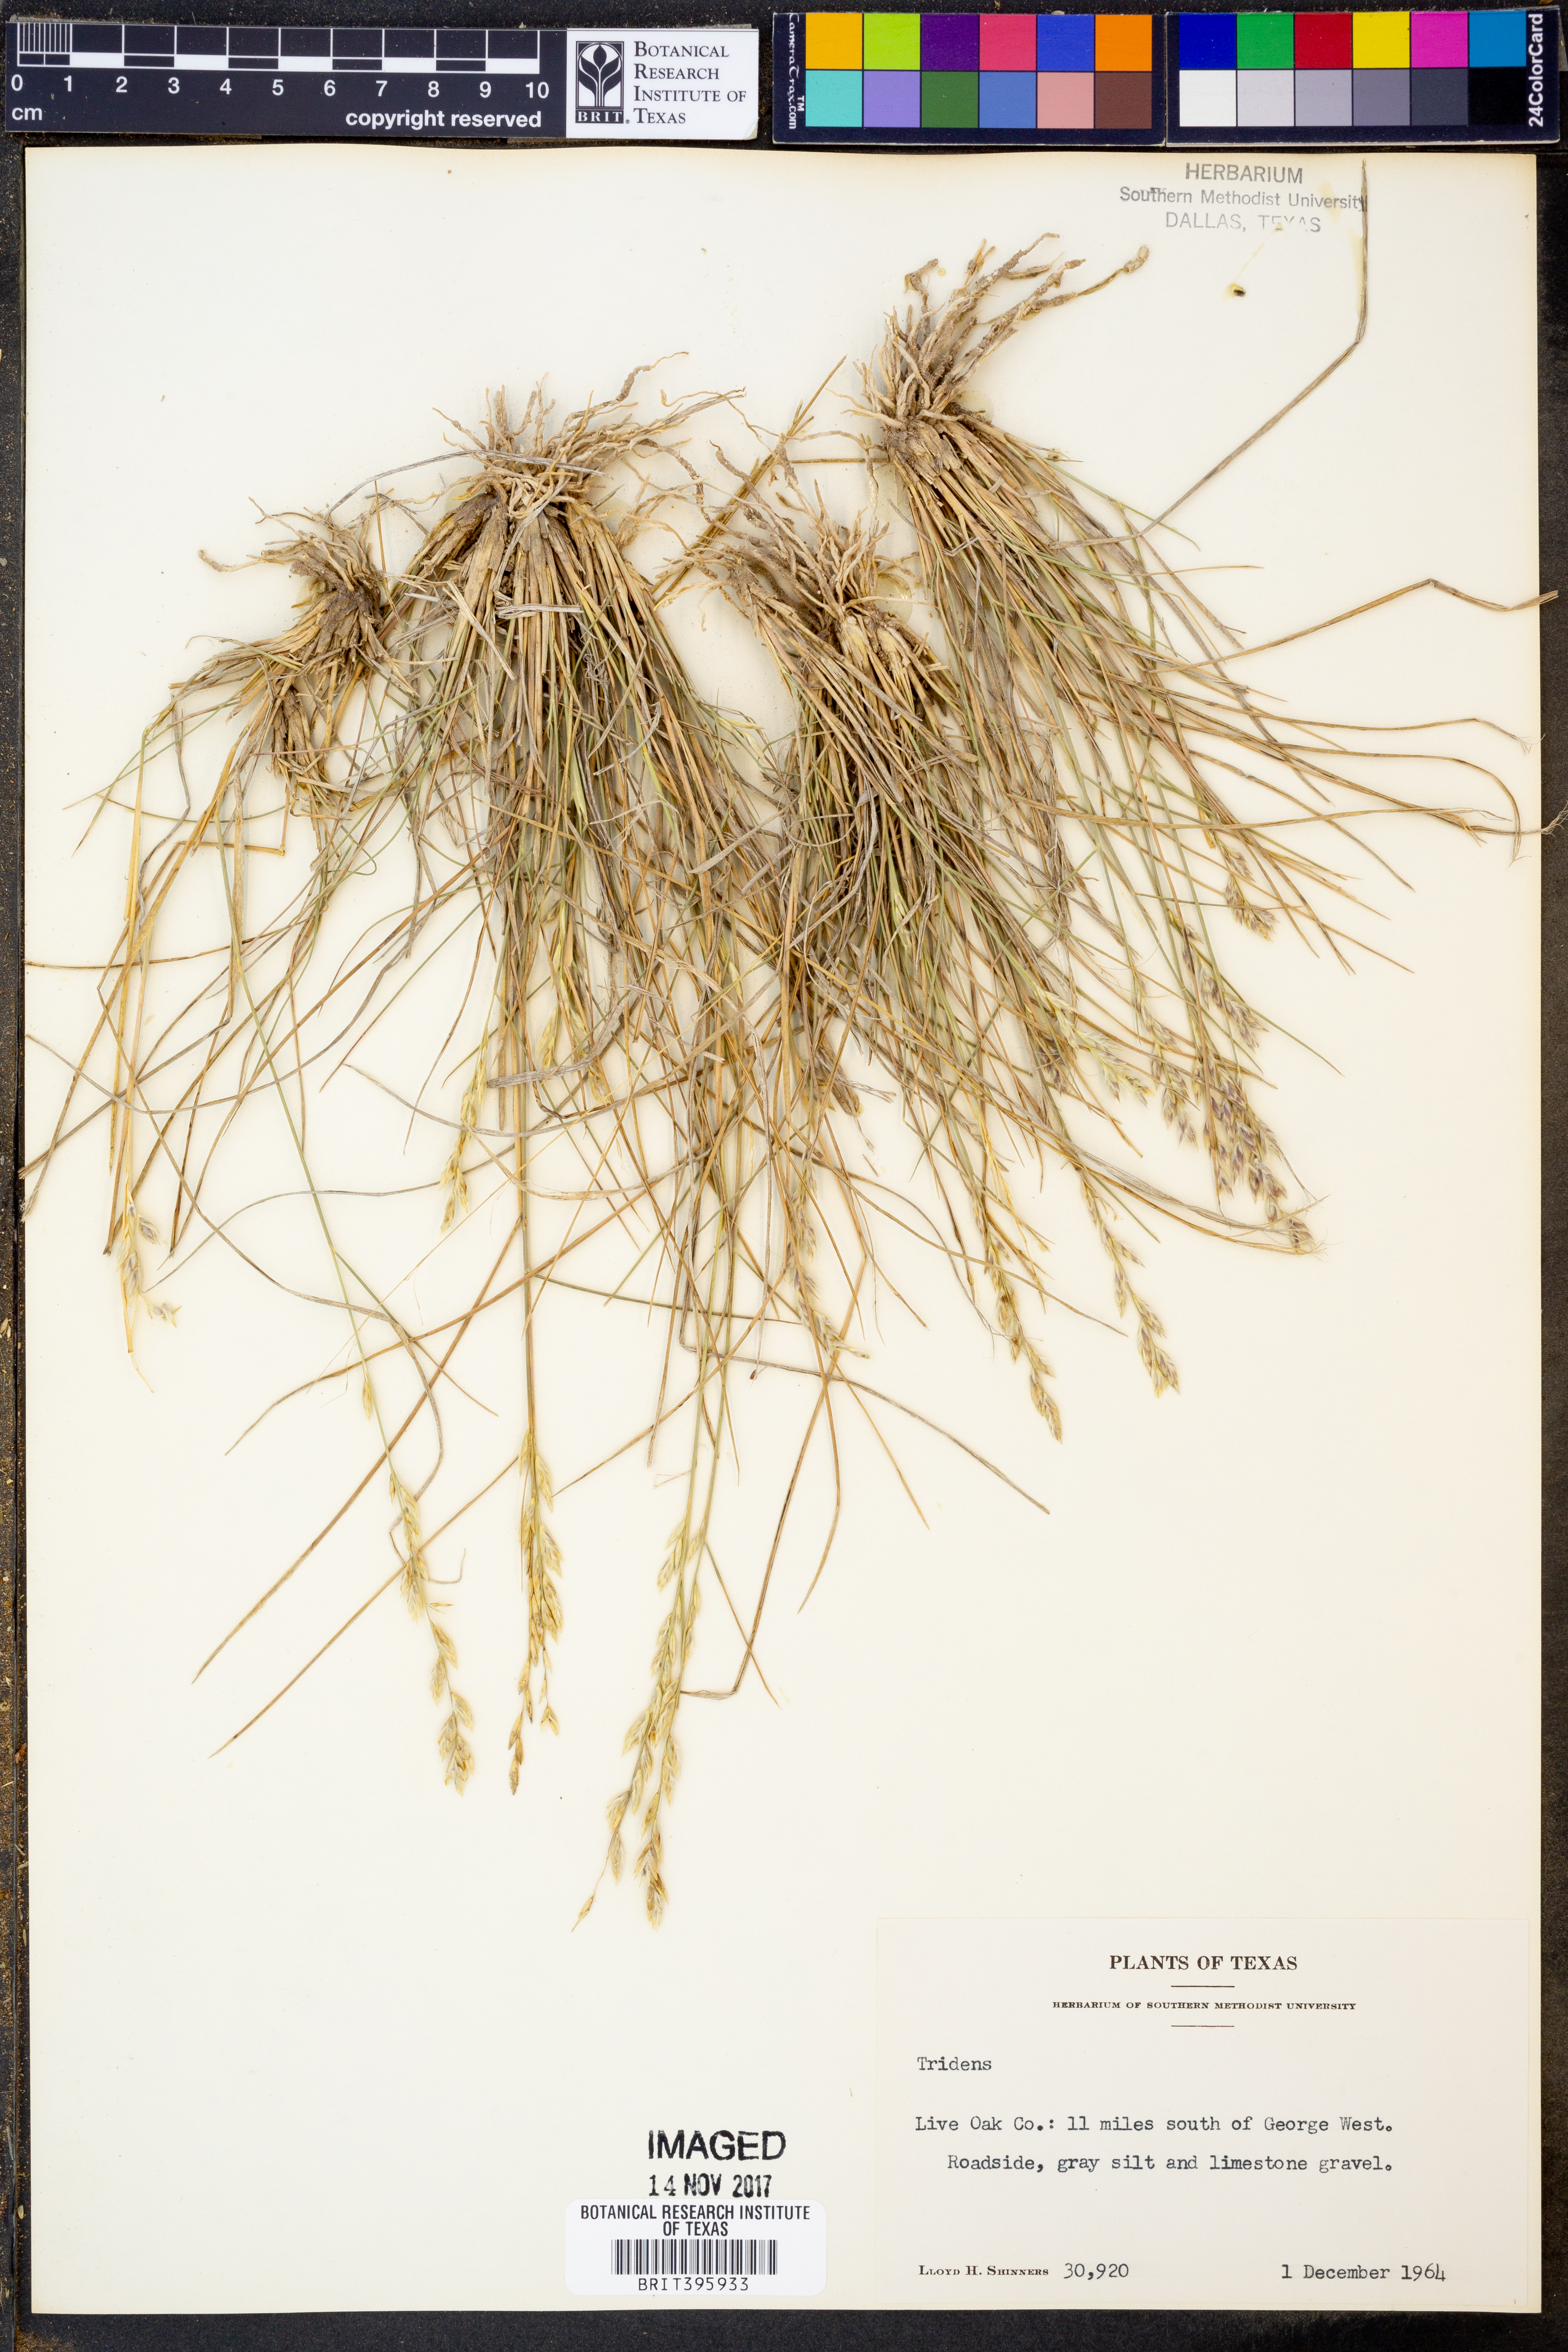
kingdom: Plantae
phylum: Tracheophyta
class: Liliopsida
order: Poales
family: Poaceae
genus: Tridens
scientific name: Tridens
